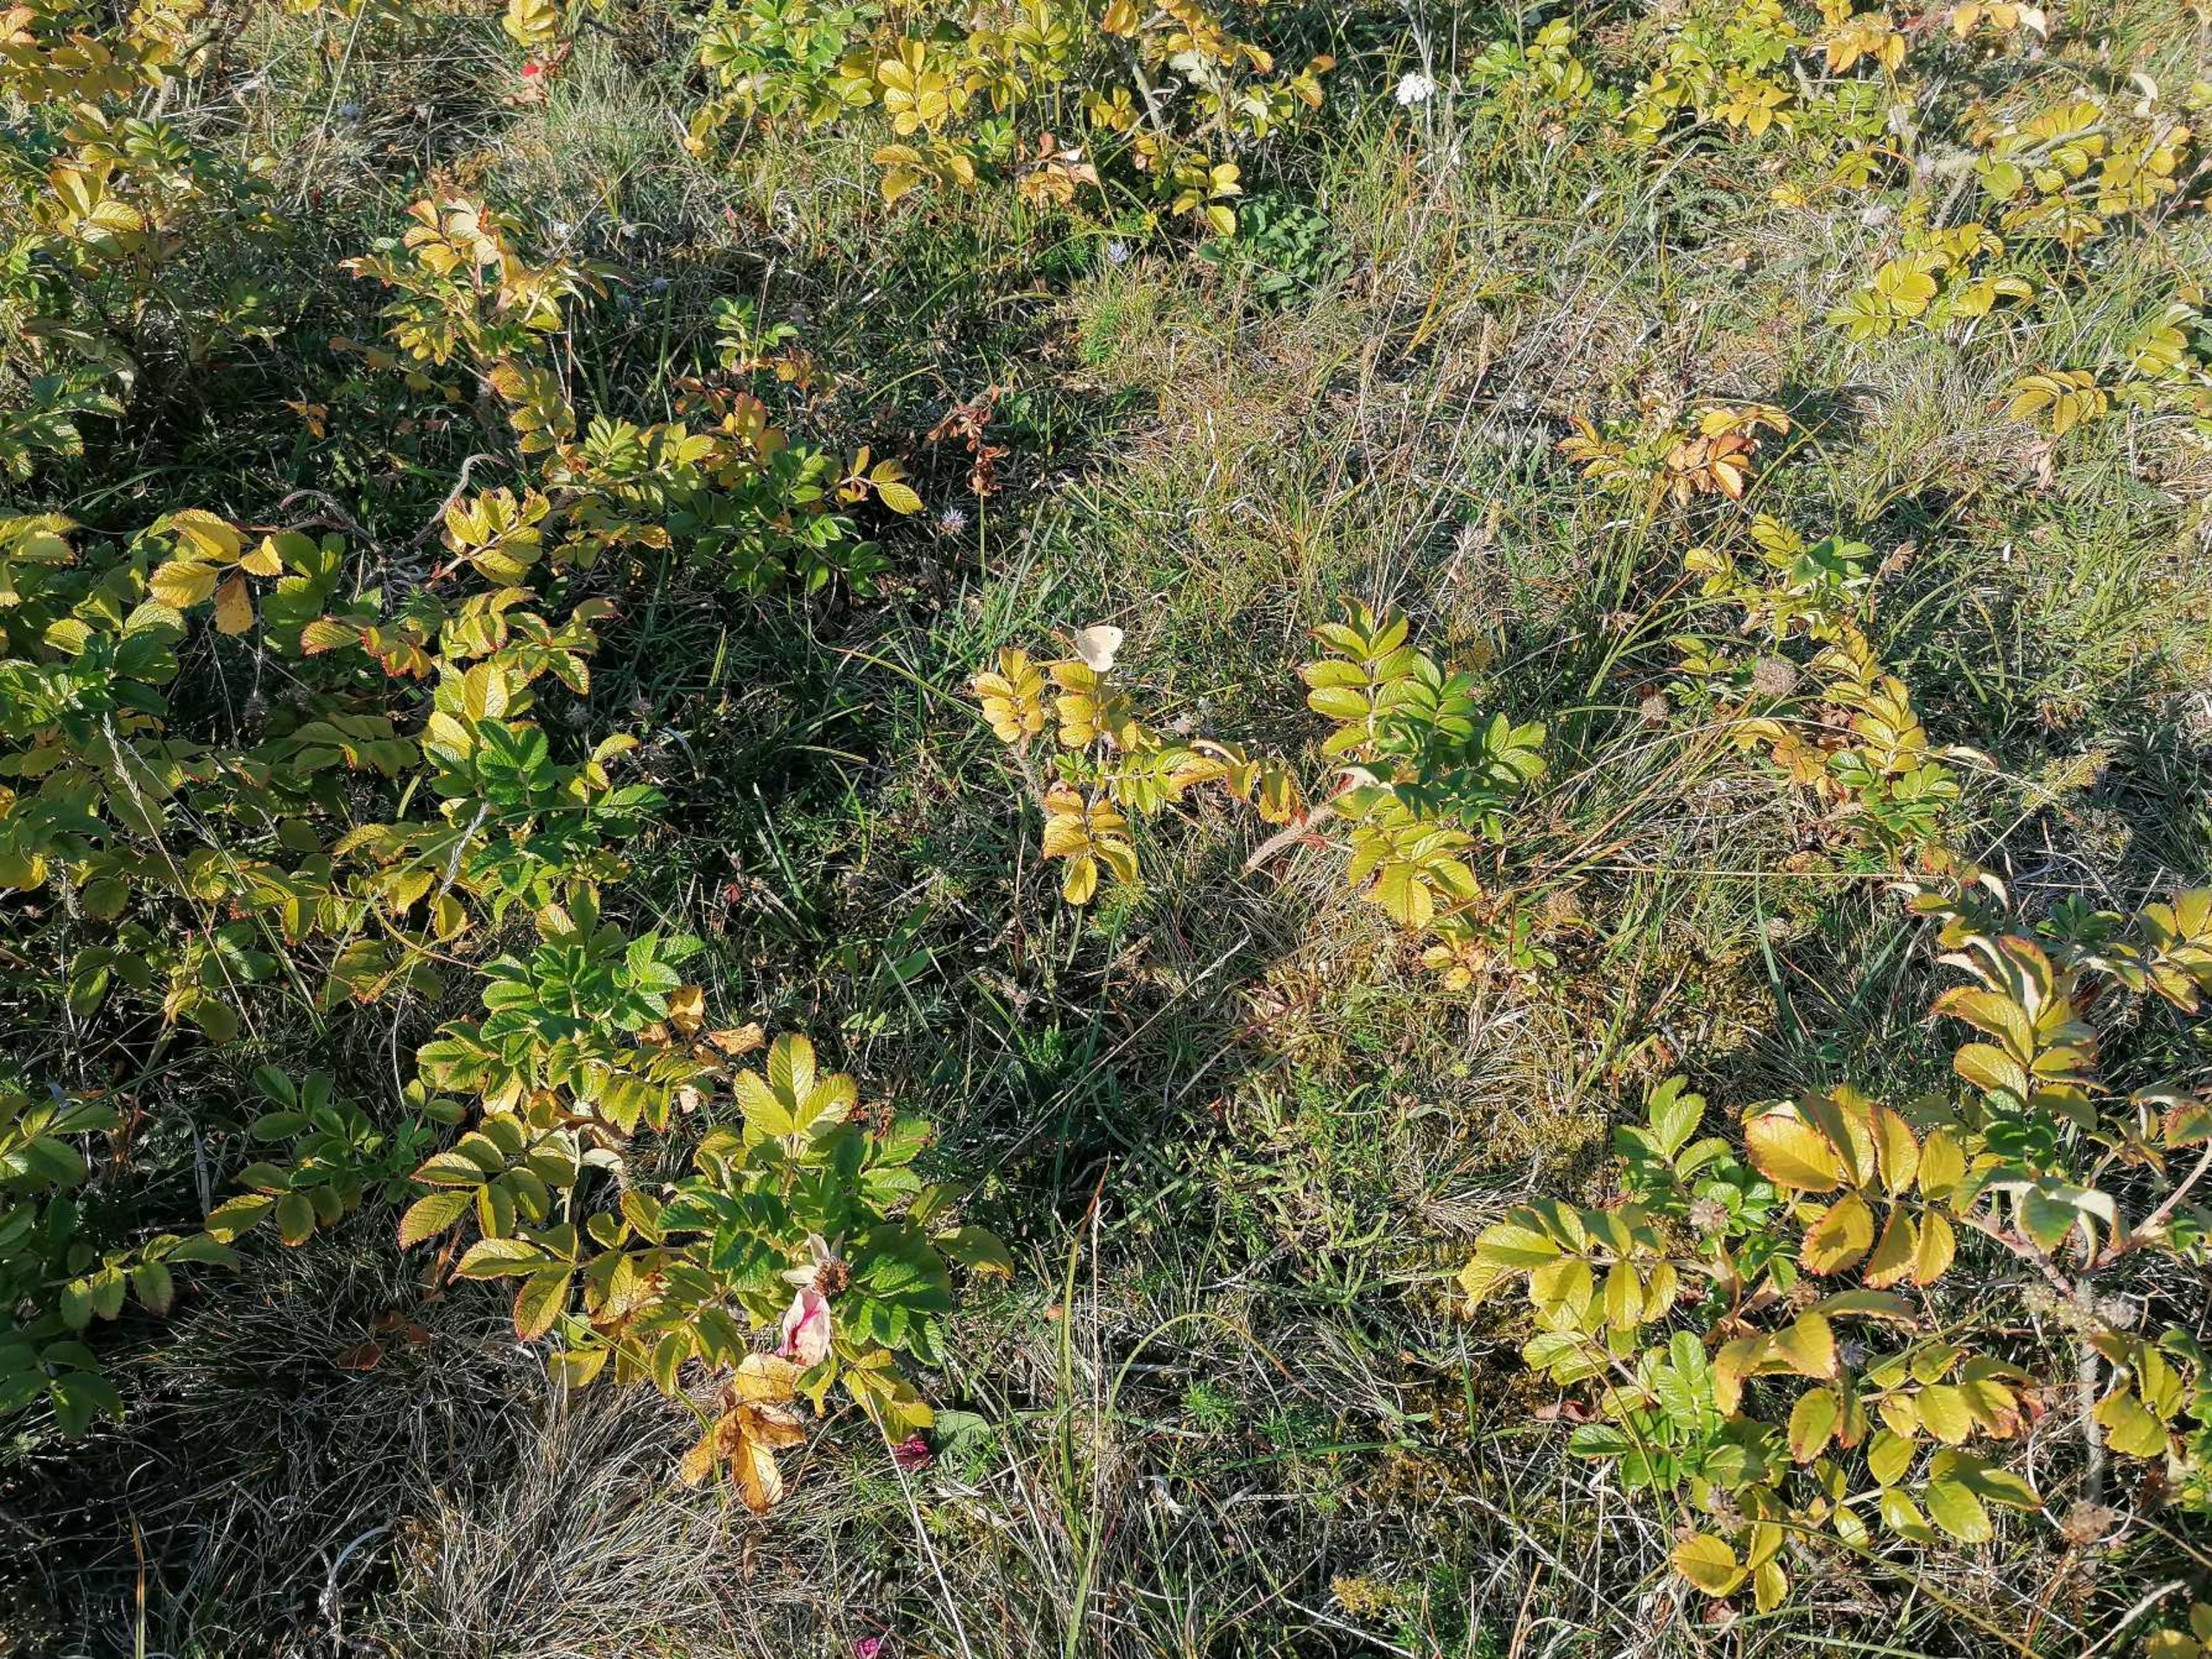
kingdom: Animalia
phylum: Arthropoda
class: Insecta
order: Lepidoptera
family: Nymphalidae
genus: Coenonympha
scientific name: Coenonympha pamphilus
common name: Okkergul randøje
